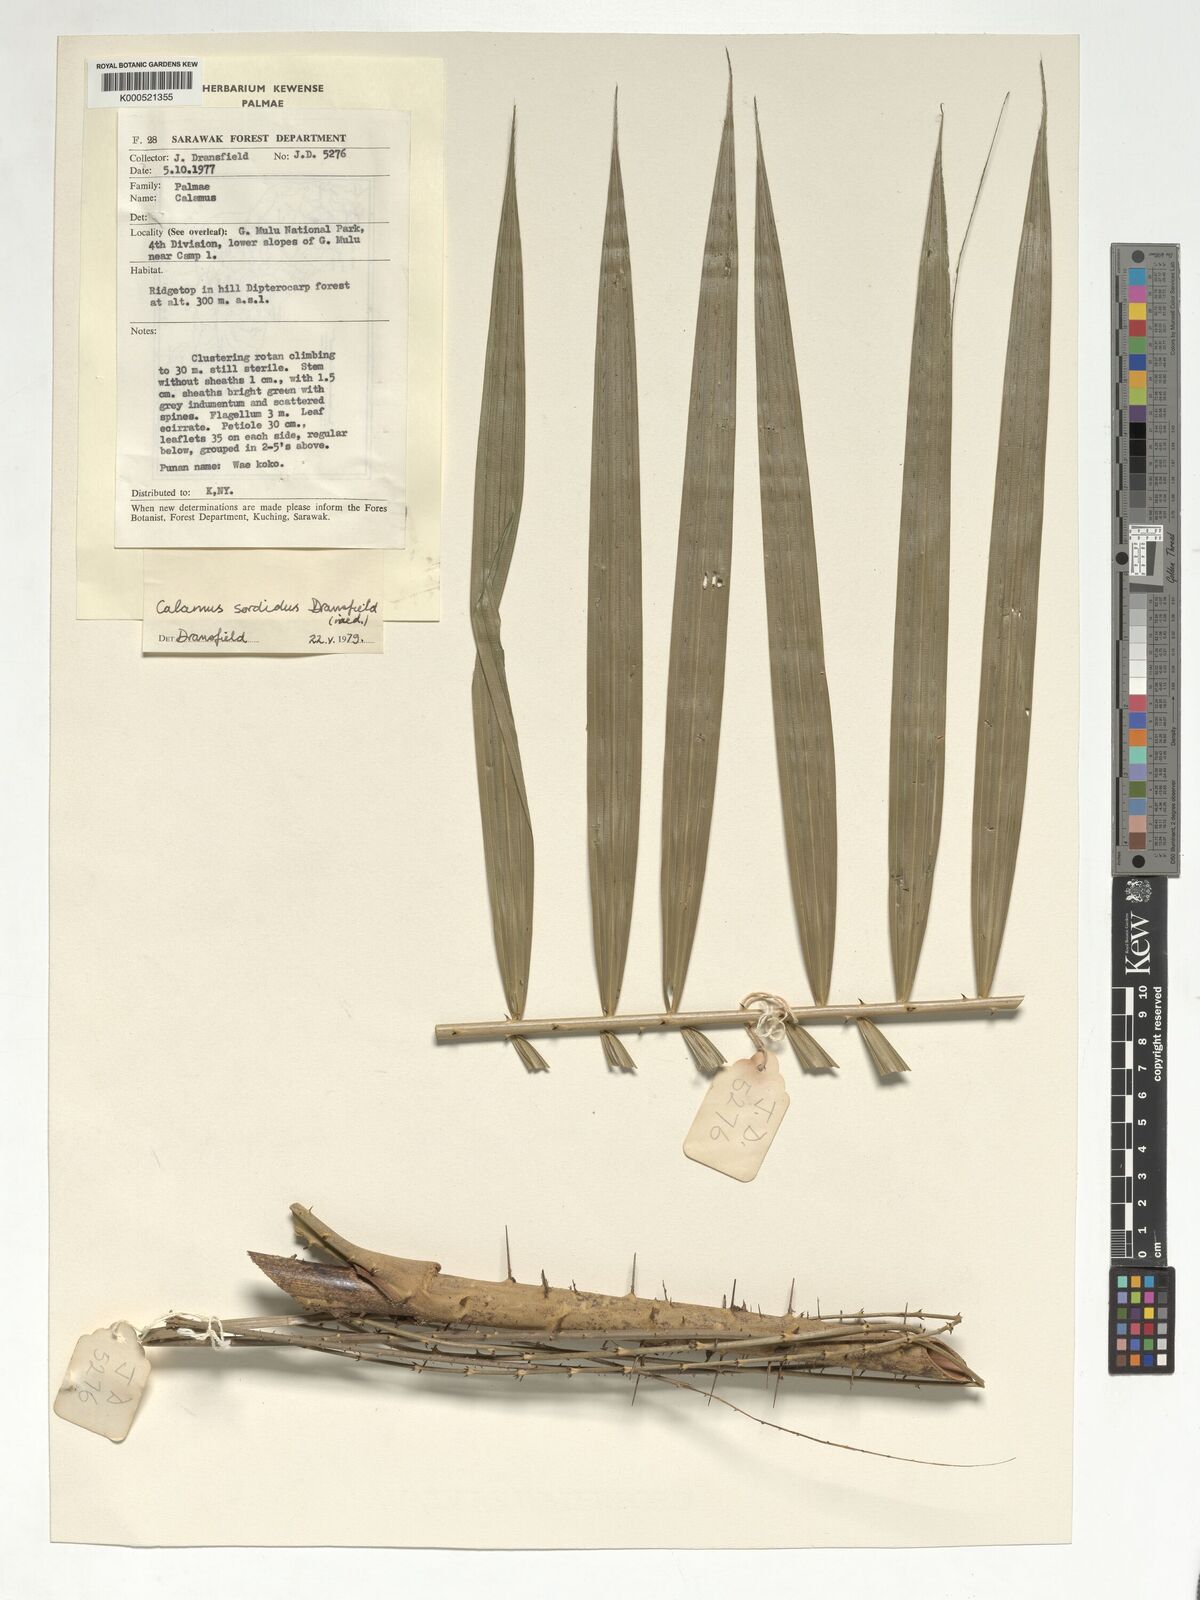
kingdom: Plantae
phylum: Tracheophyta
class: Liliopsida
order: Arecales
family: Arecaceae
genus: Calamus
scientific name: Calamus sordidus
